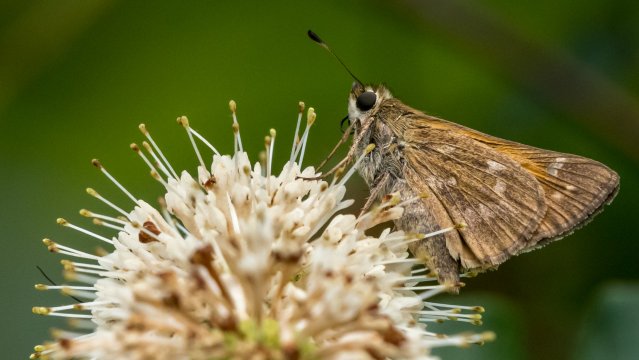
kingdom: Animalia
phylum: Arthropoda
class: Insecta
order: Lepidoptera
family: Hesperiidae
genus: Atalopedes
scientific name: Atalopedes campestris
